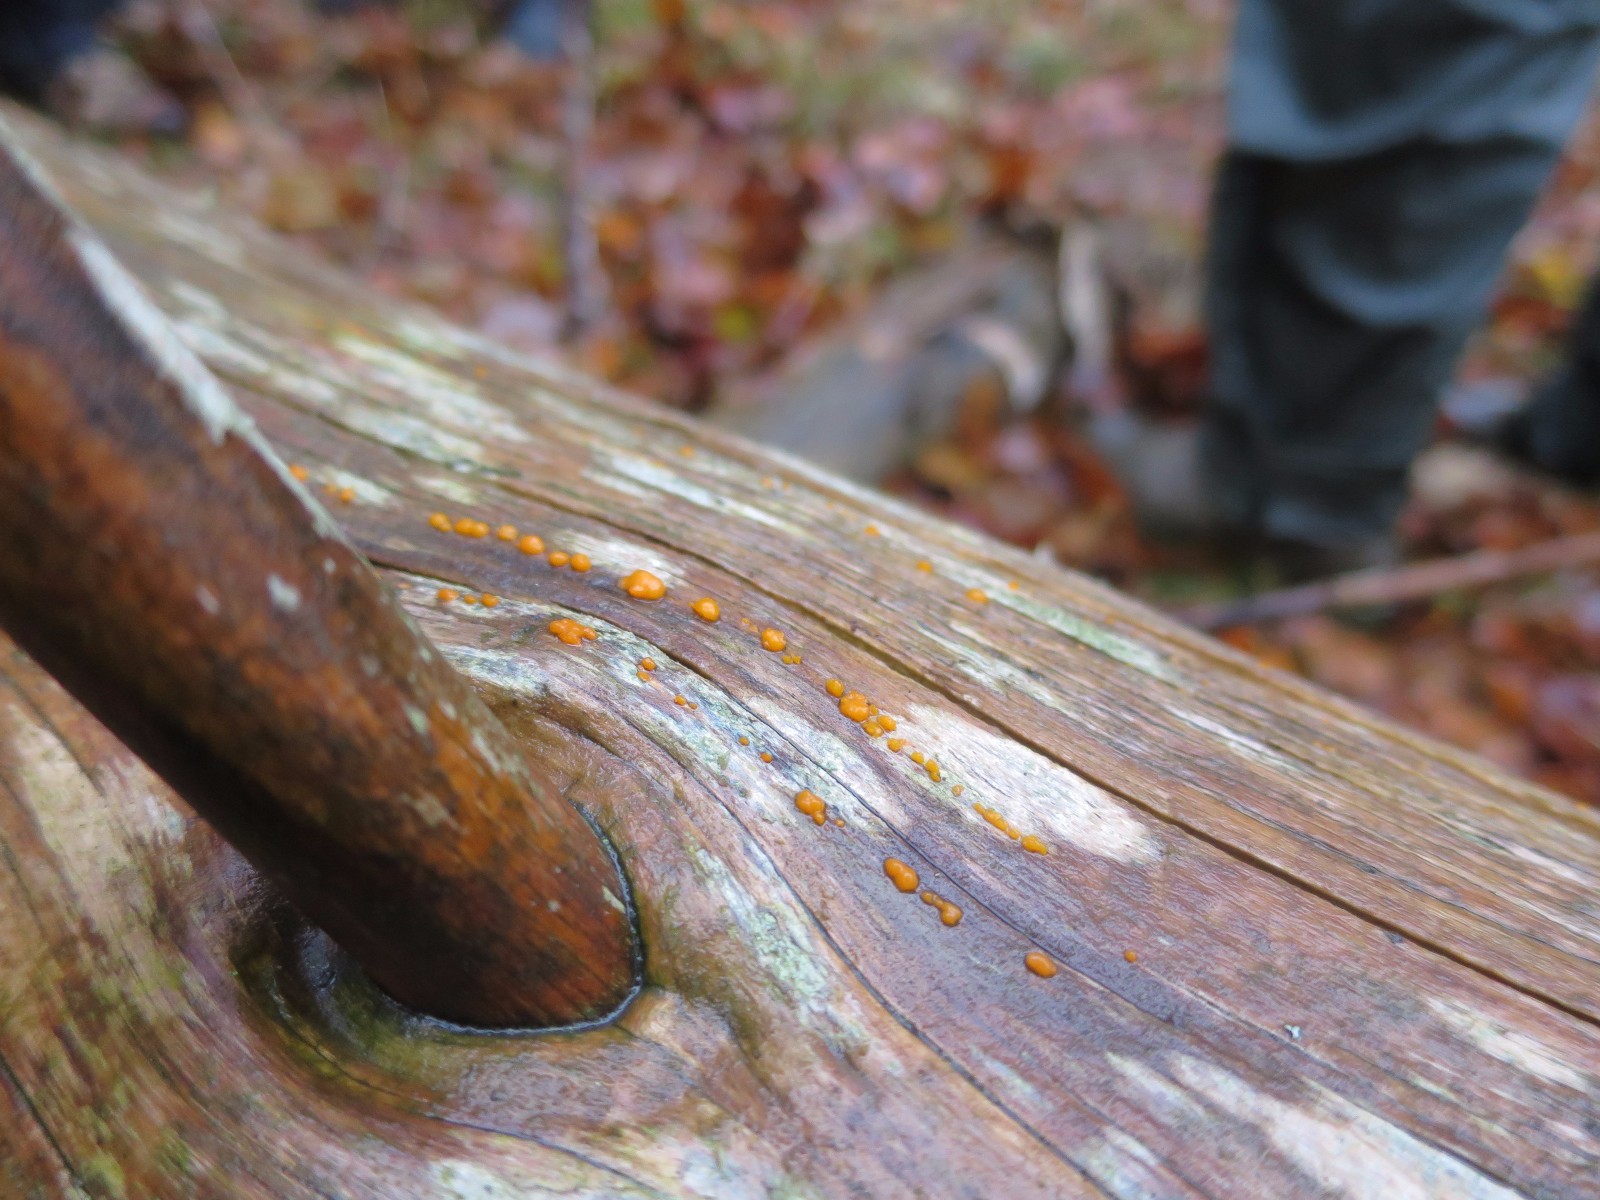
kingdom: Fungi
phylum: Basidiomycota
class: Dacrymycetes
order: Dacrymycetales
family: Dacrymycetaceae
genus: Dacrymyces
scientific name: Dacrymyces stillatus
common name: almindelig tåresvamp
